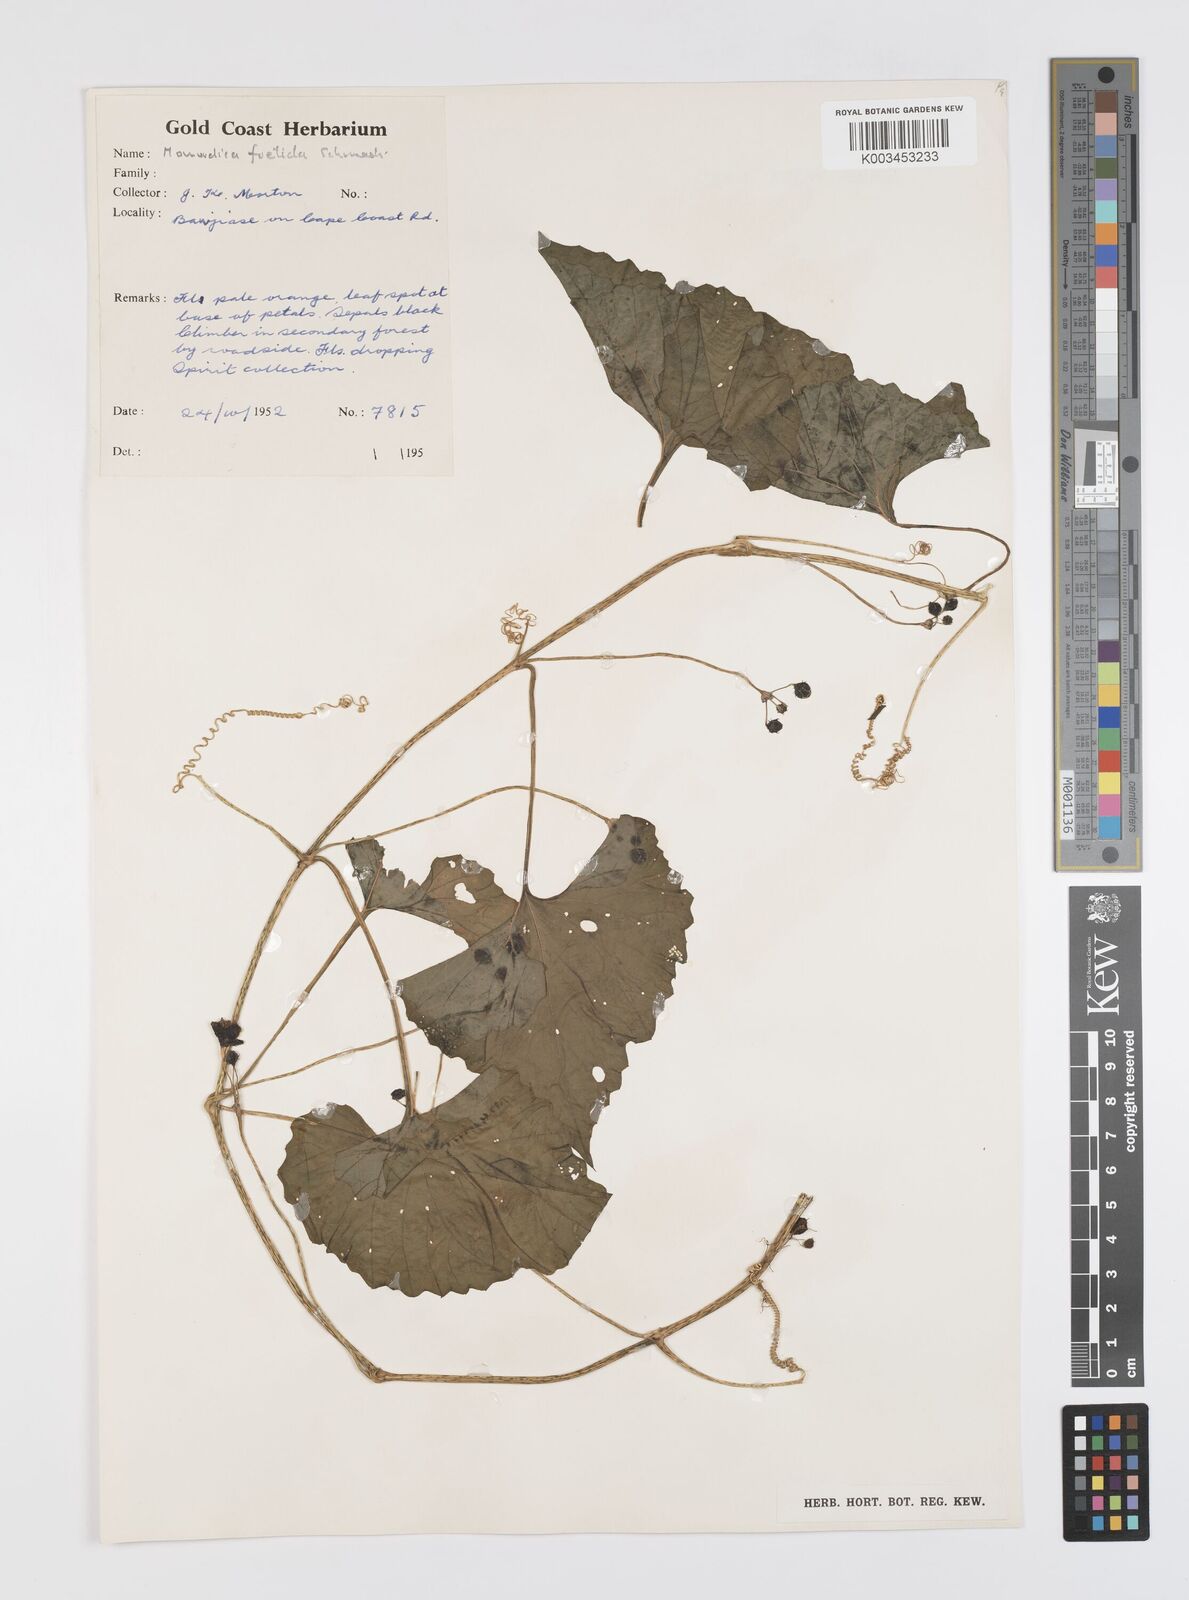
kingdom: Plantae
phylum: Tracheophyta
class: Magnoliopsida
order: Cucurbitales
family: Cucurbitaceae
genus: Momordica
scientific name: Momordica foetida
